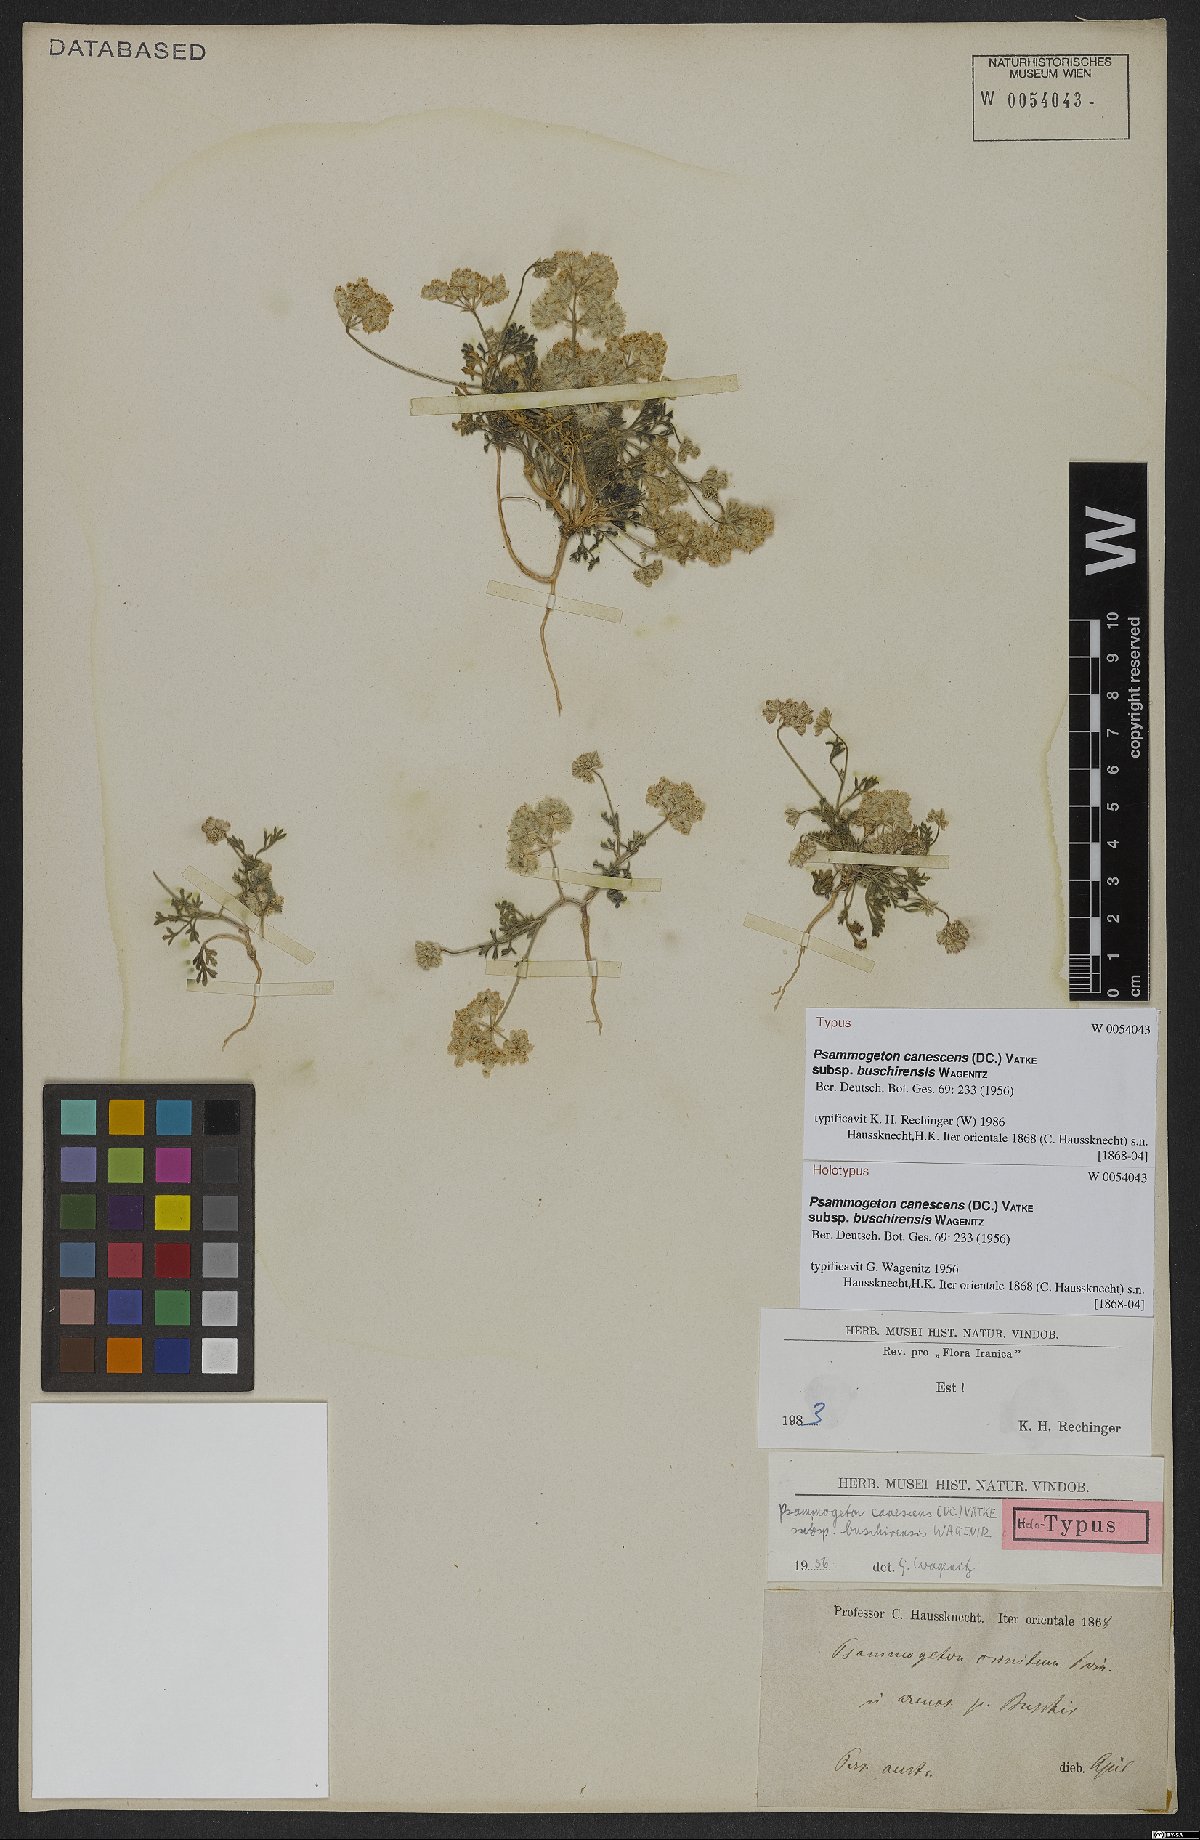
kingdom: Plantae
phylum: Tracheophyta
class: Magnoliopsida
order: Apiales
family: Apiaceae
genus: Psammogeton
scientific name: Psammogeton canescens
